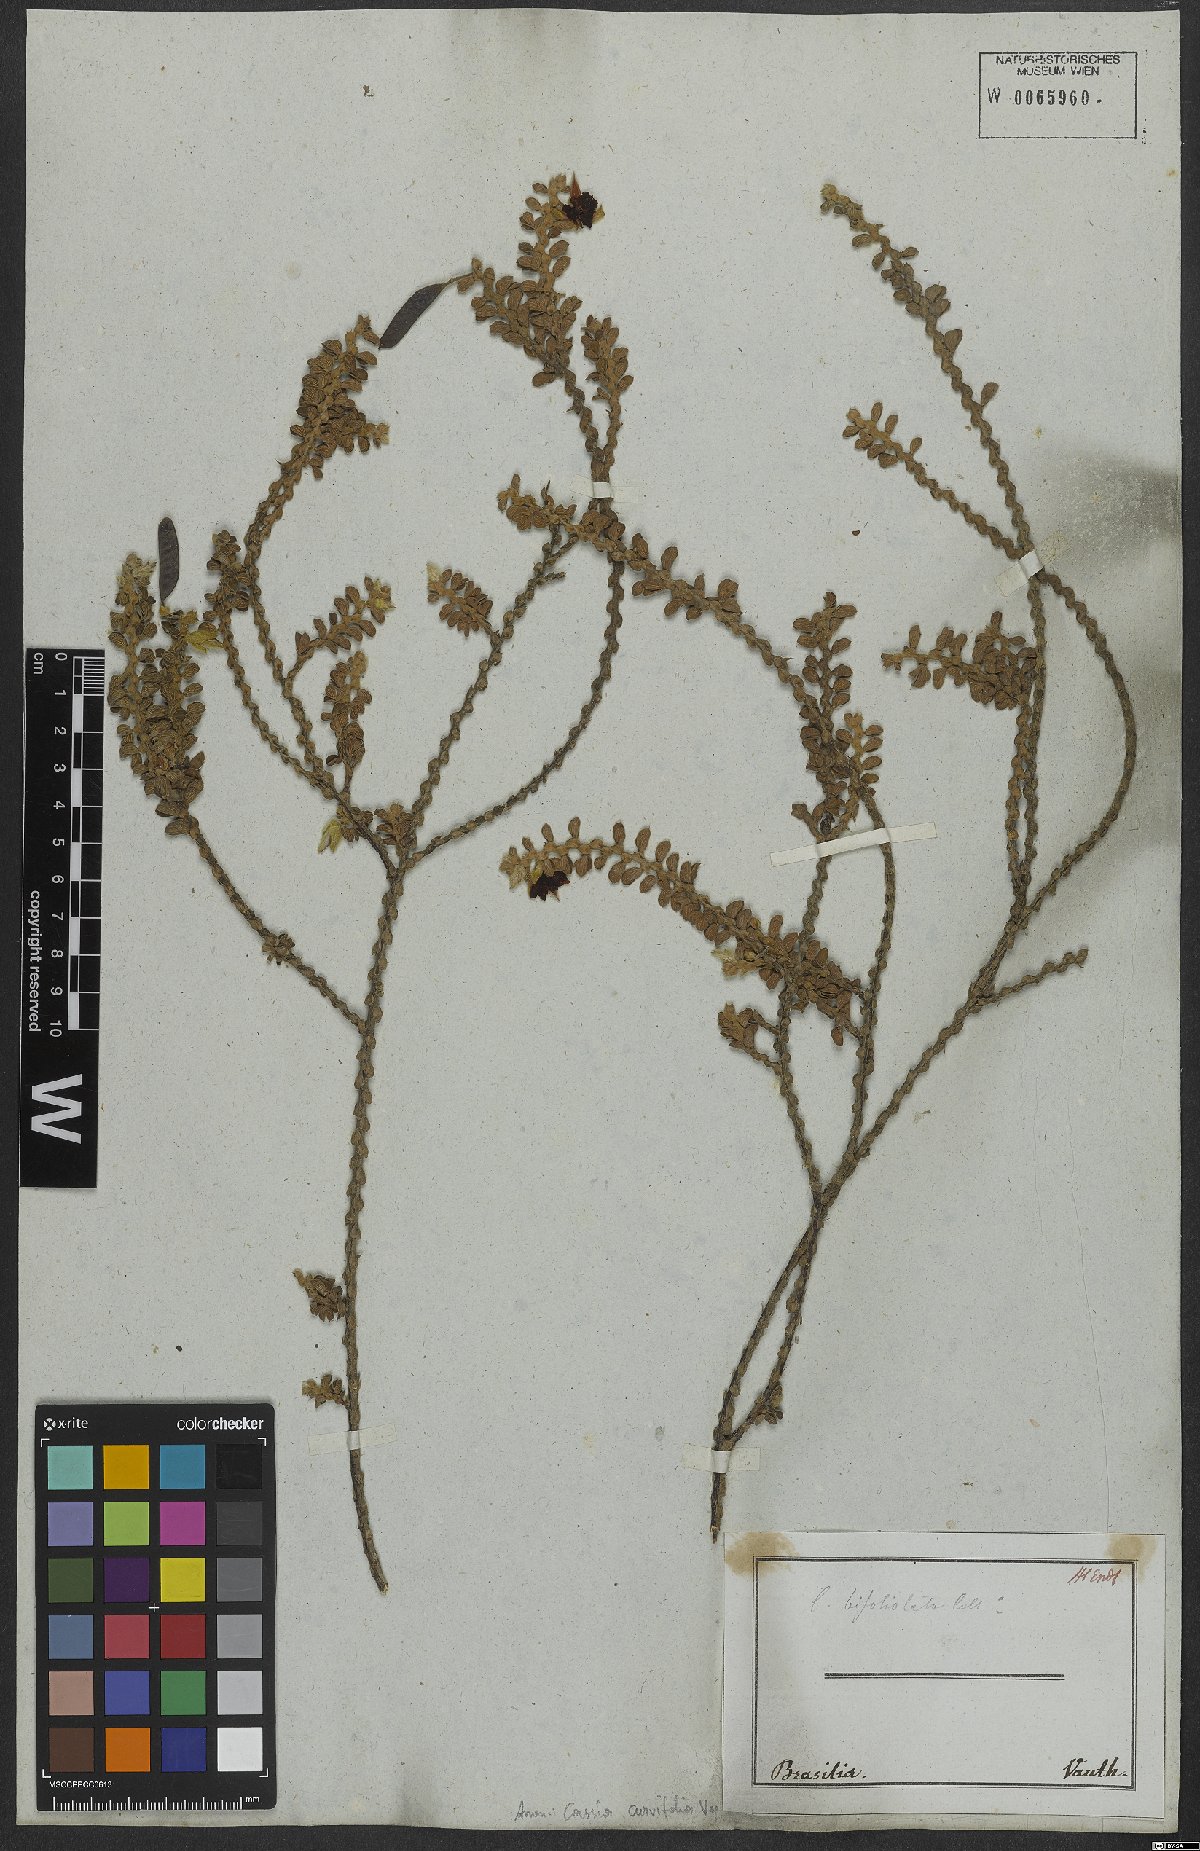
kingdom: Plantae
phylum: Tracheophyta
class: Magnoliopsida
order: Fabales
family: Fabaceae
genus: Chamaecrista
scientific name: Chamaecrista ramosa
